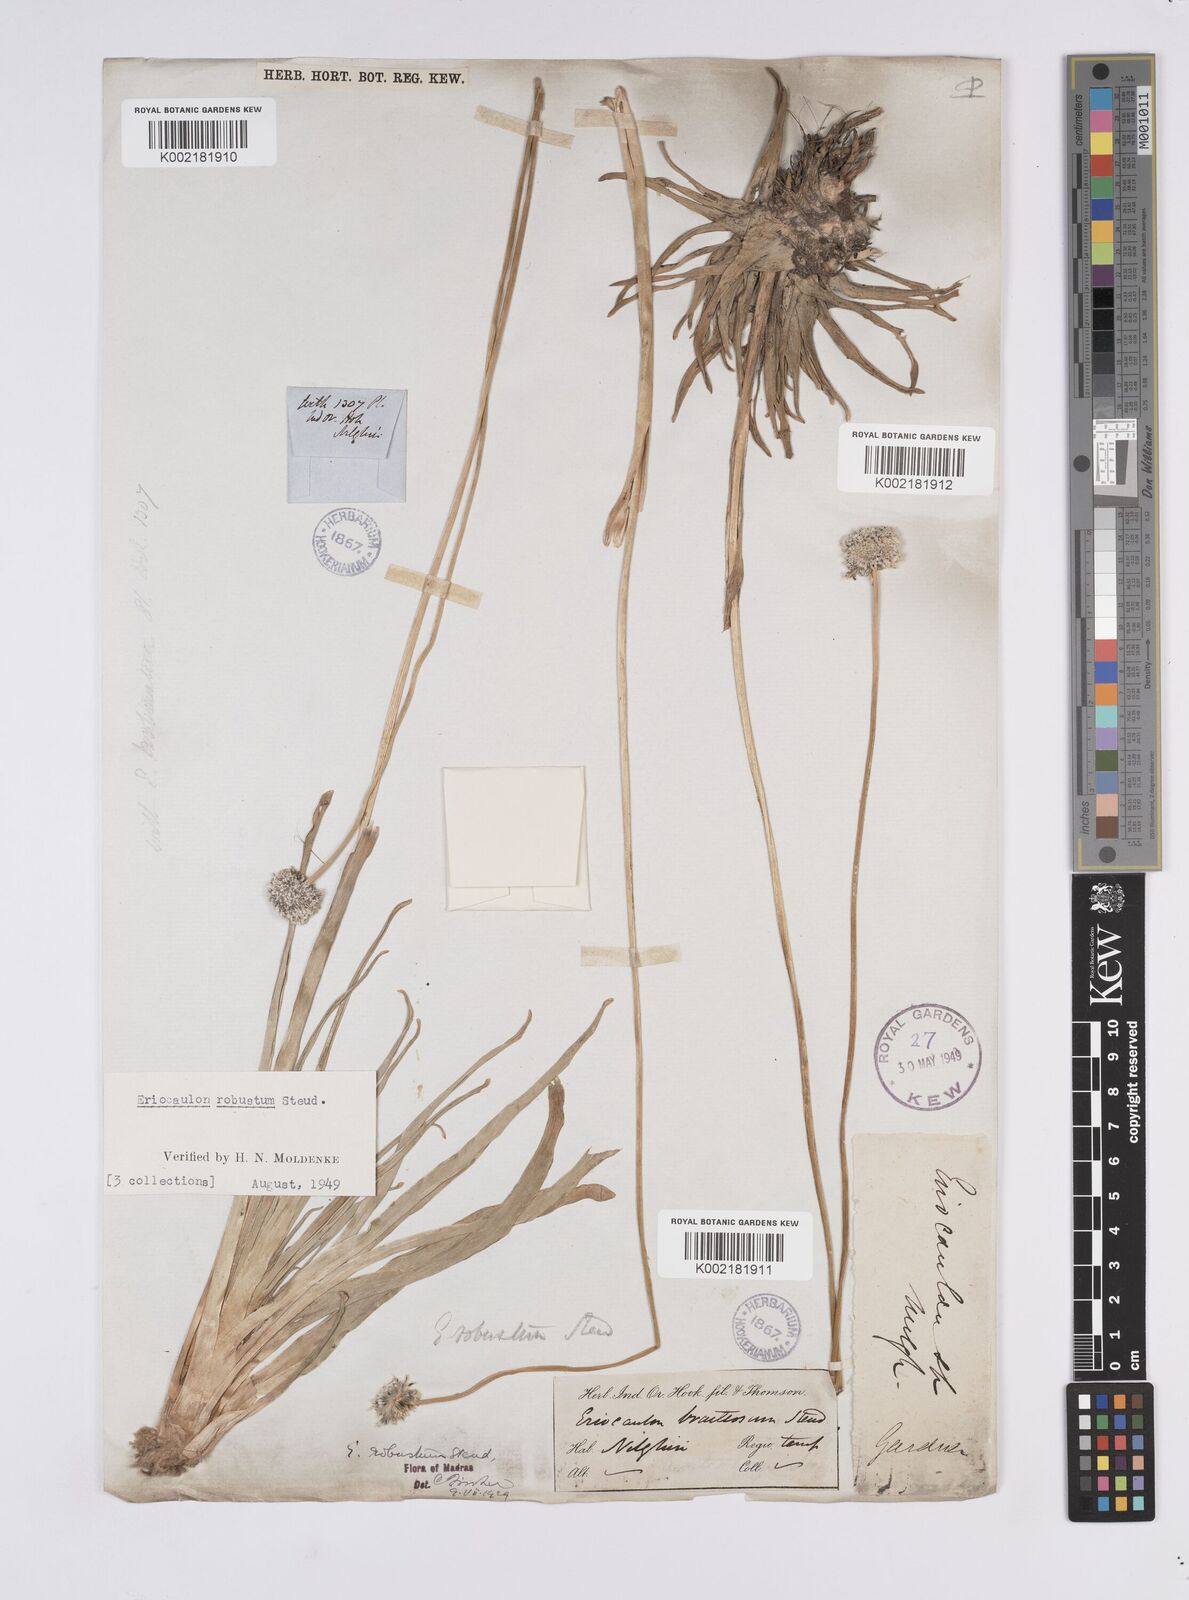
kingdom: Plantae
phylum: Tracheophyta
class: Liliopsida
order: Poales
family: Eriocaulaceae
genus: Eriocaulon
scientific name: Eriocaulon robustum
